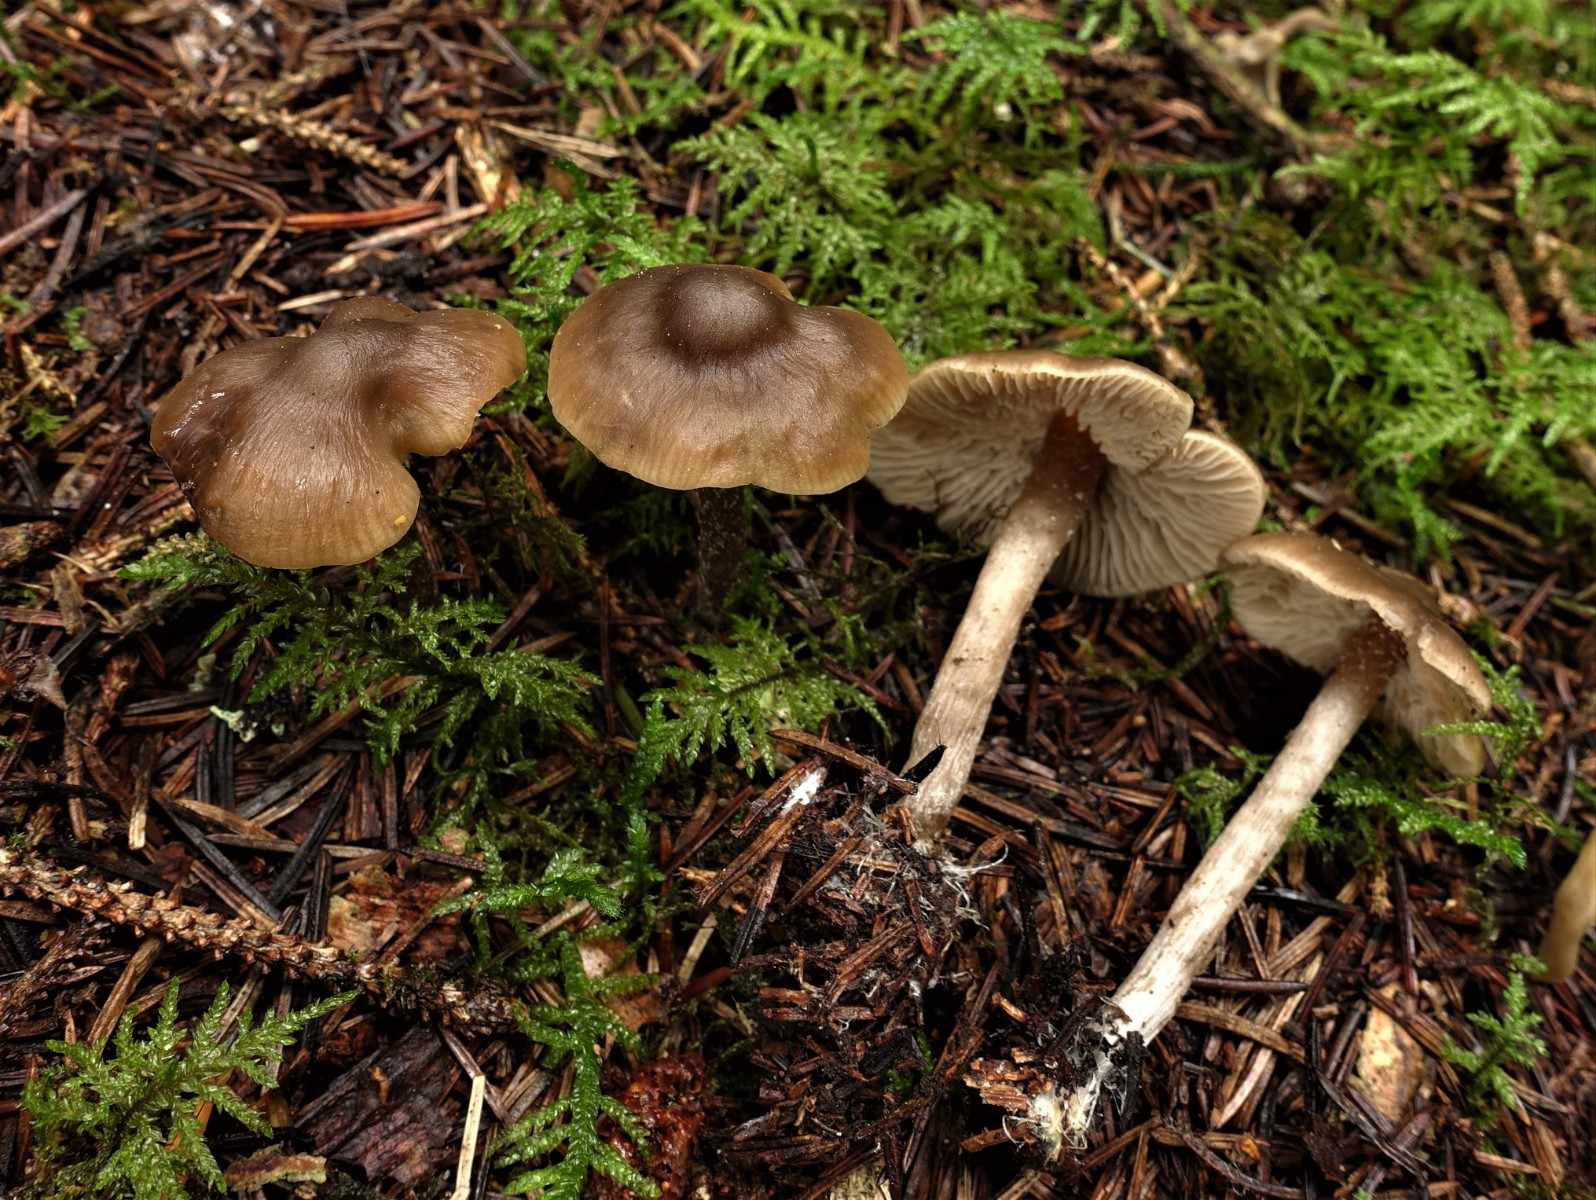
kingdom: Fungi
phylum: Basidiomycota
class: Agaricomycetes
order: Agaricales
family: Lyophyllaceae
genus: Myochromella
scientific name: Myochromella boudieri
